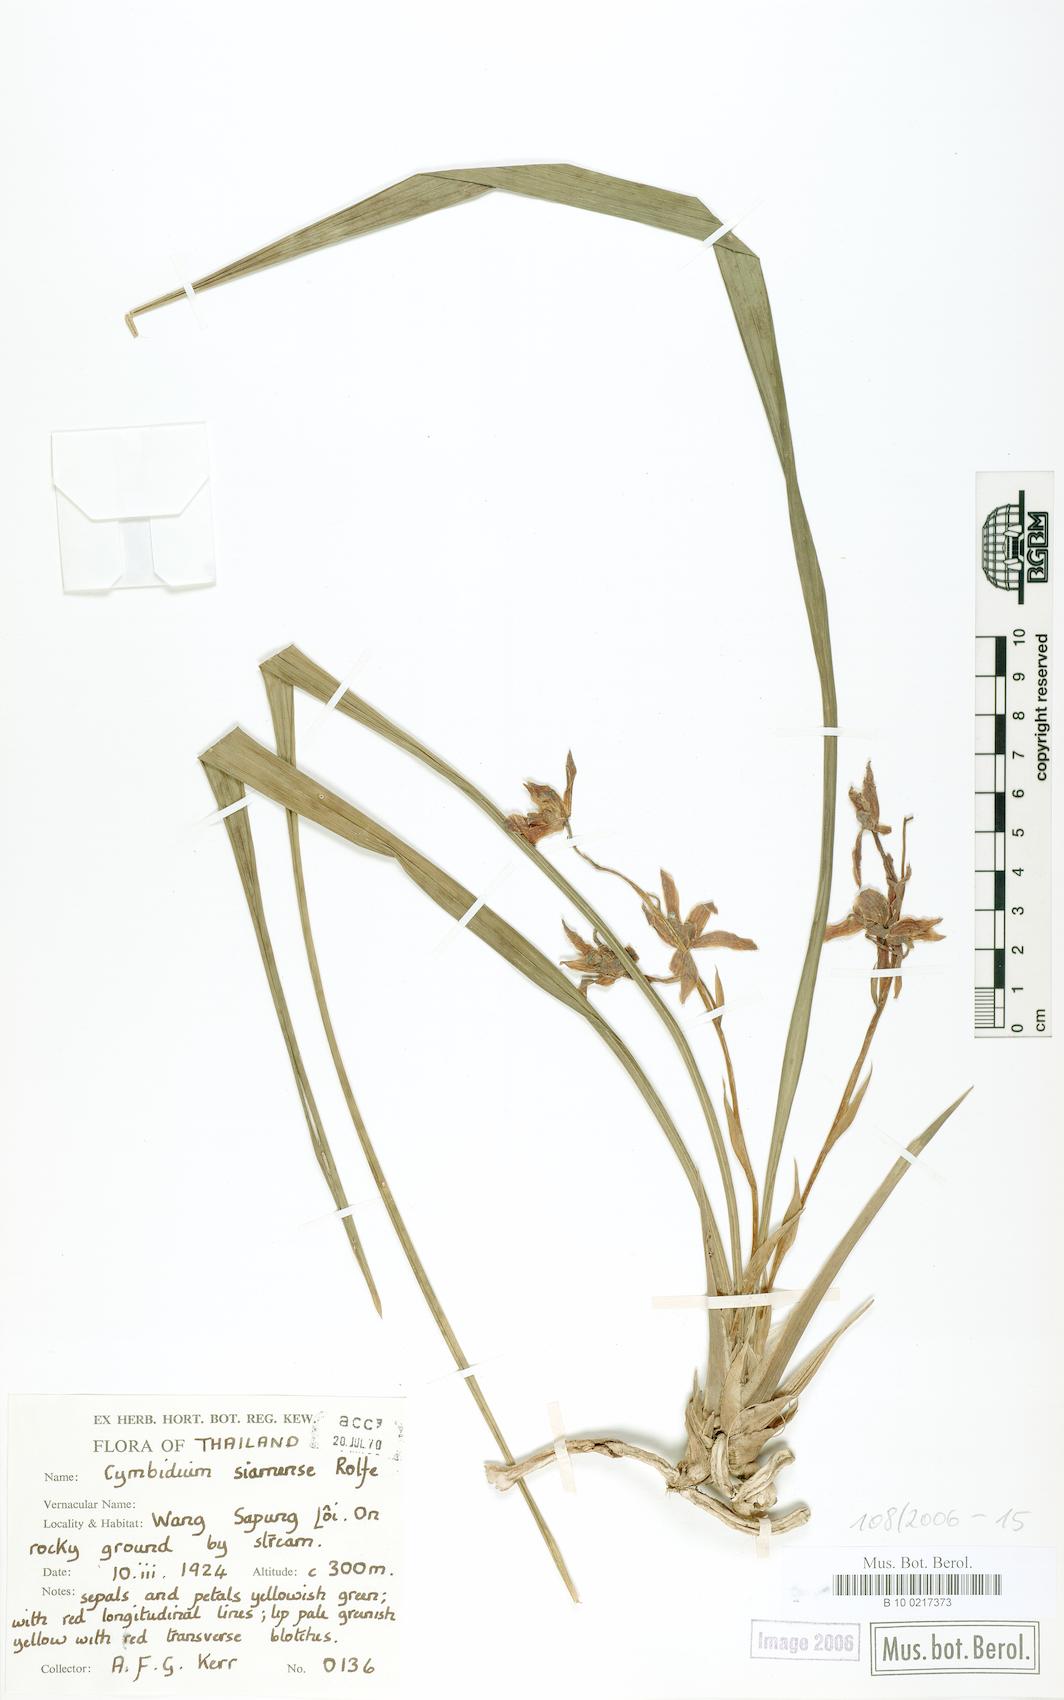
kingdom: Plantae
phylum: Tracheophyta
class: Liliopsida
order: Asparagales
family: Orchidaceae
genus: Cymbidium
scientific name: Cymbidium haematodes
